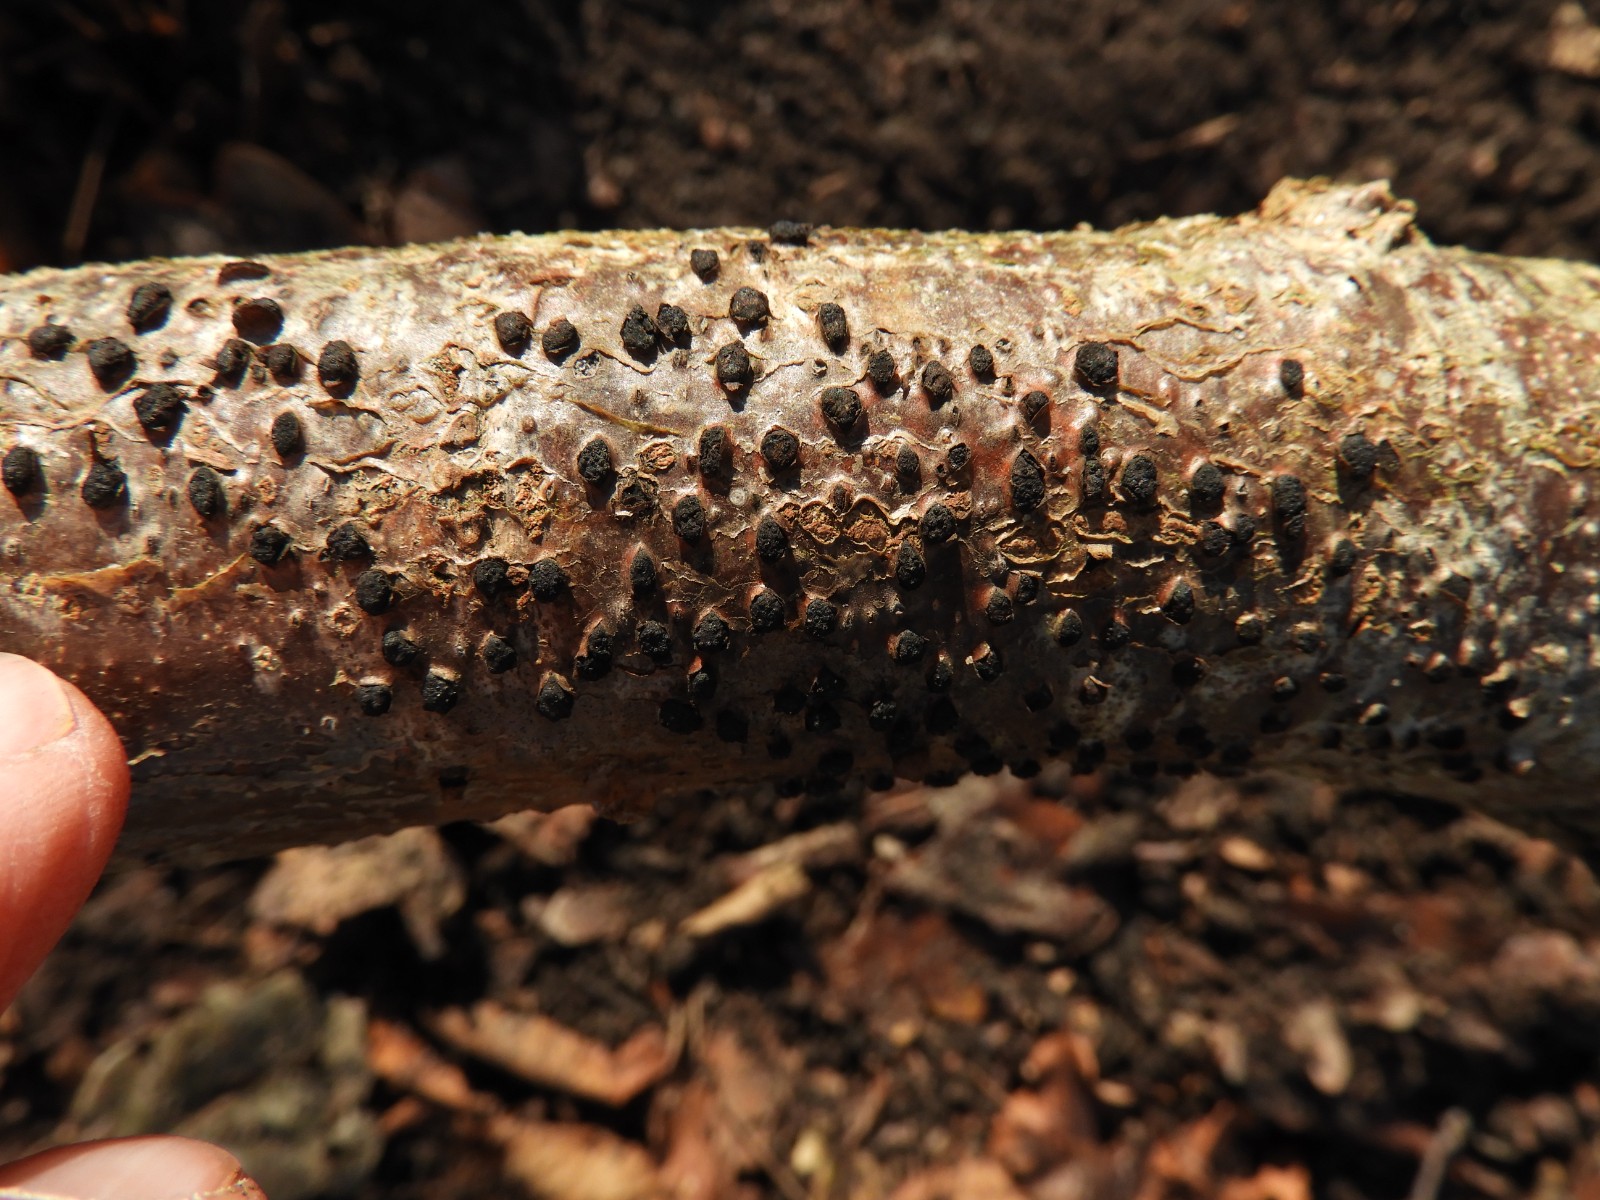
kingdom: Fungi
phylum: Ascomycota
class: Sordariomycetes
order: Xylariales
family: Diatrypaceae
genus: Diatrypella
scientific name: Diatrypella quercina
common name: ege-kulskorpe
